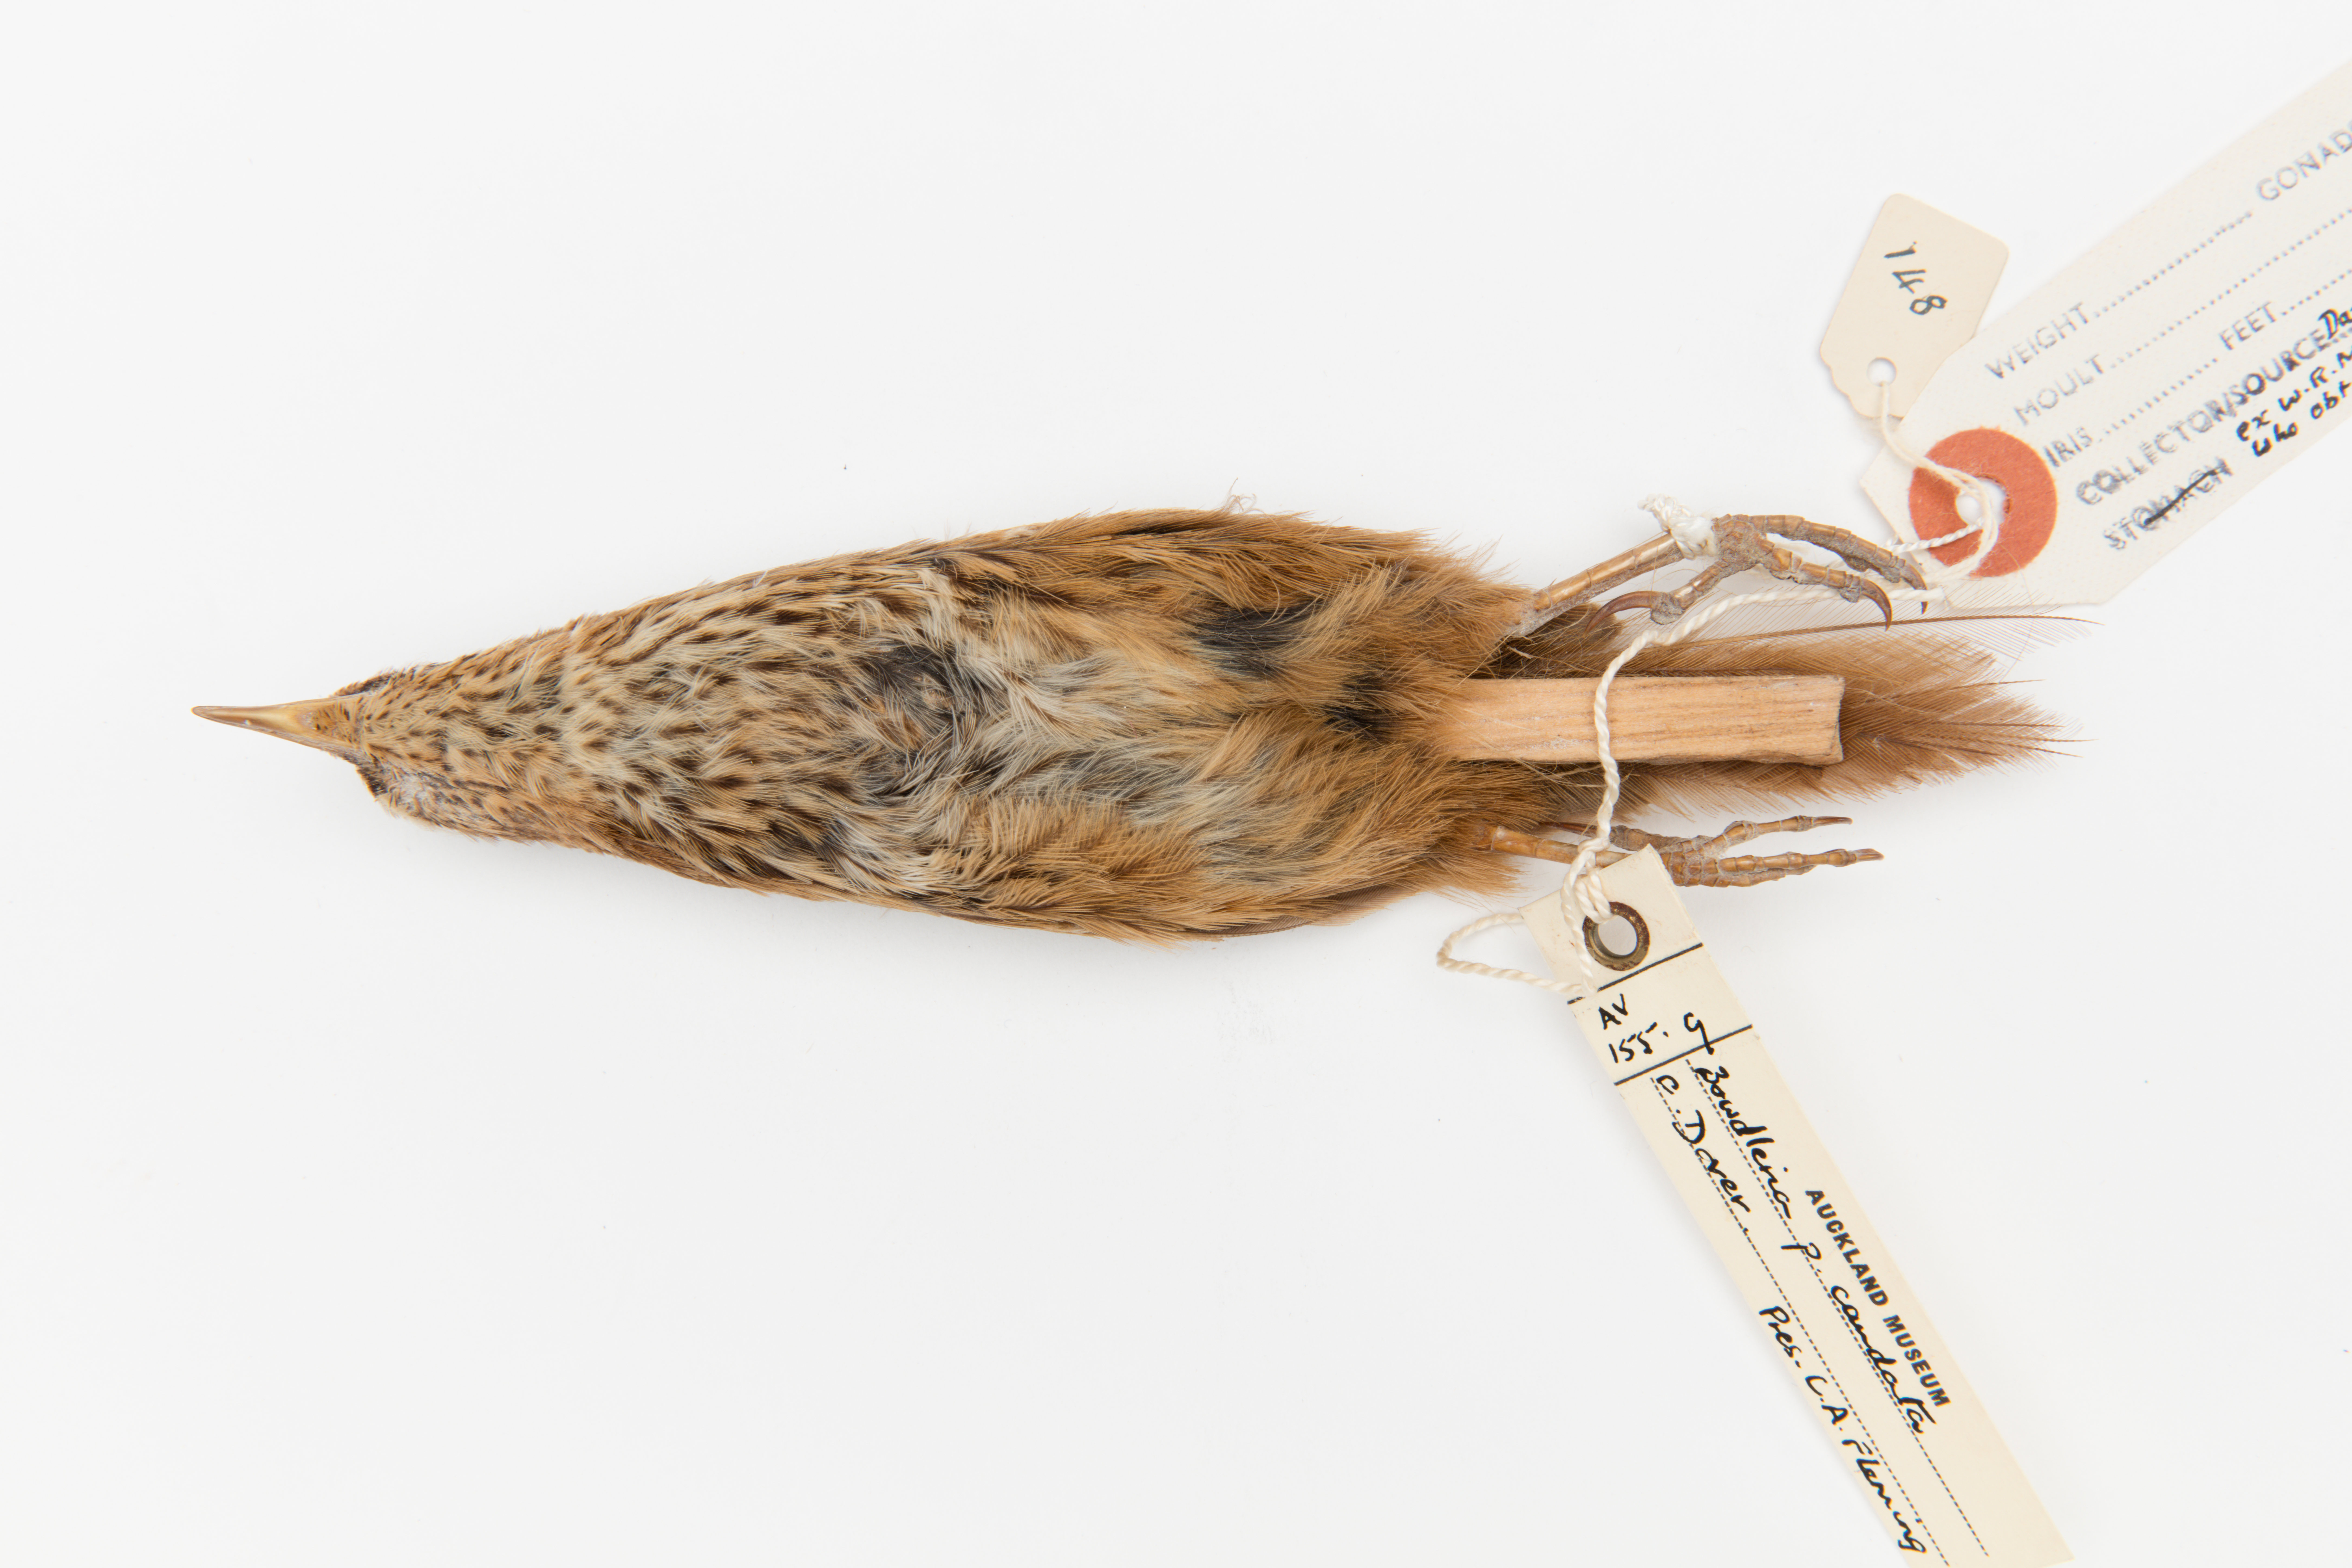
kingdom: Animalia
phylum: Chordata
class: Aves
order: Passeriformes
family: Locustellidae
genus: Megalurus
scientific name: Megalurus punctatus
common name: New zealand fernbird
